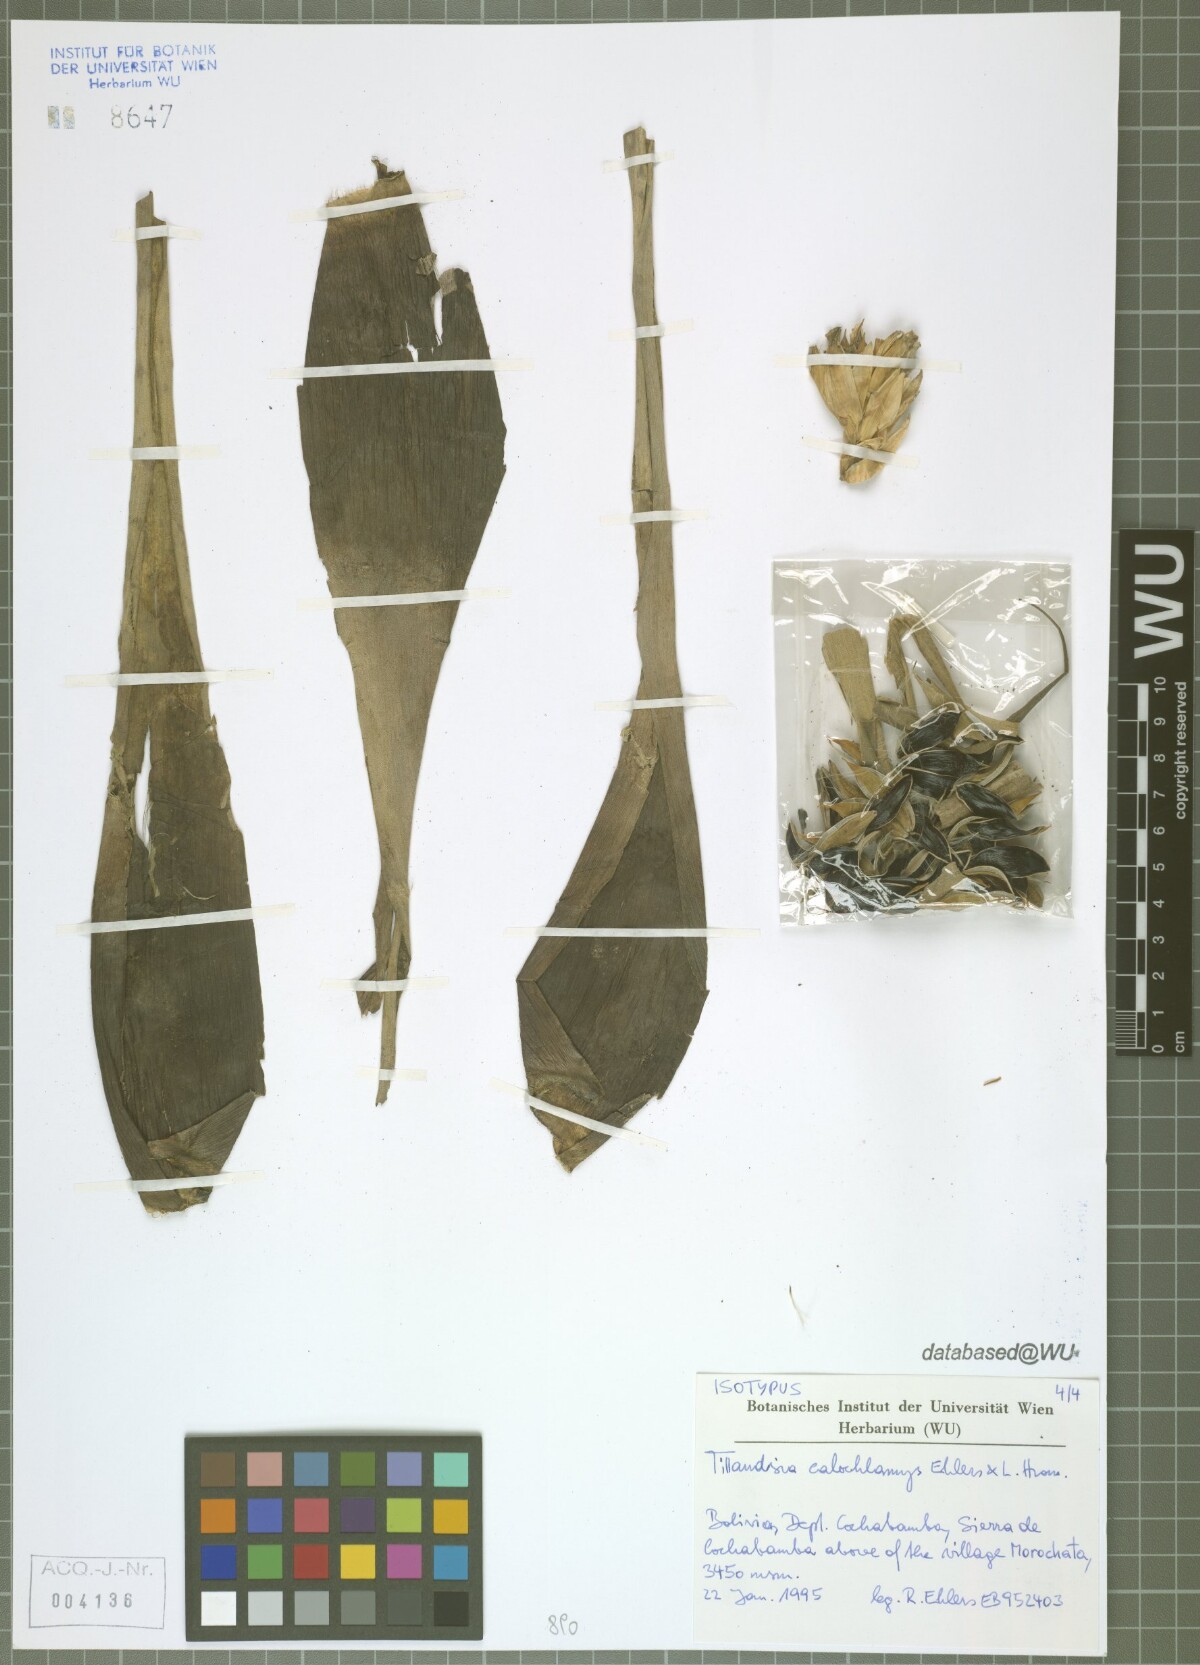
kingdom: Plantae
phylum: Tracheophyta
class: Liliopsida
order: Poales
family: Bromeliaceae
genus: Tillandsia
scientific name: Tillandsia calochlamys
